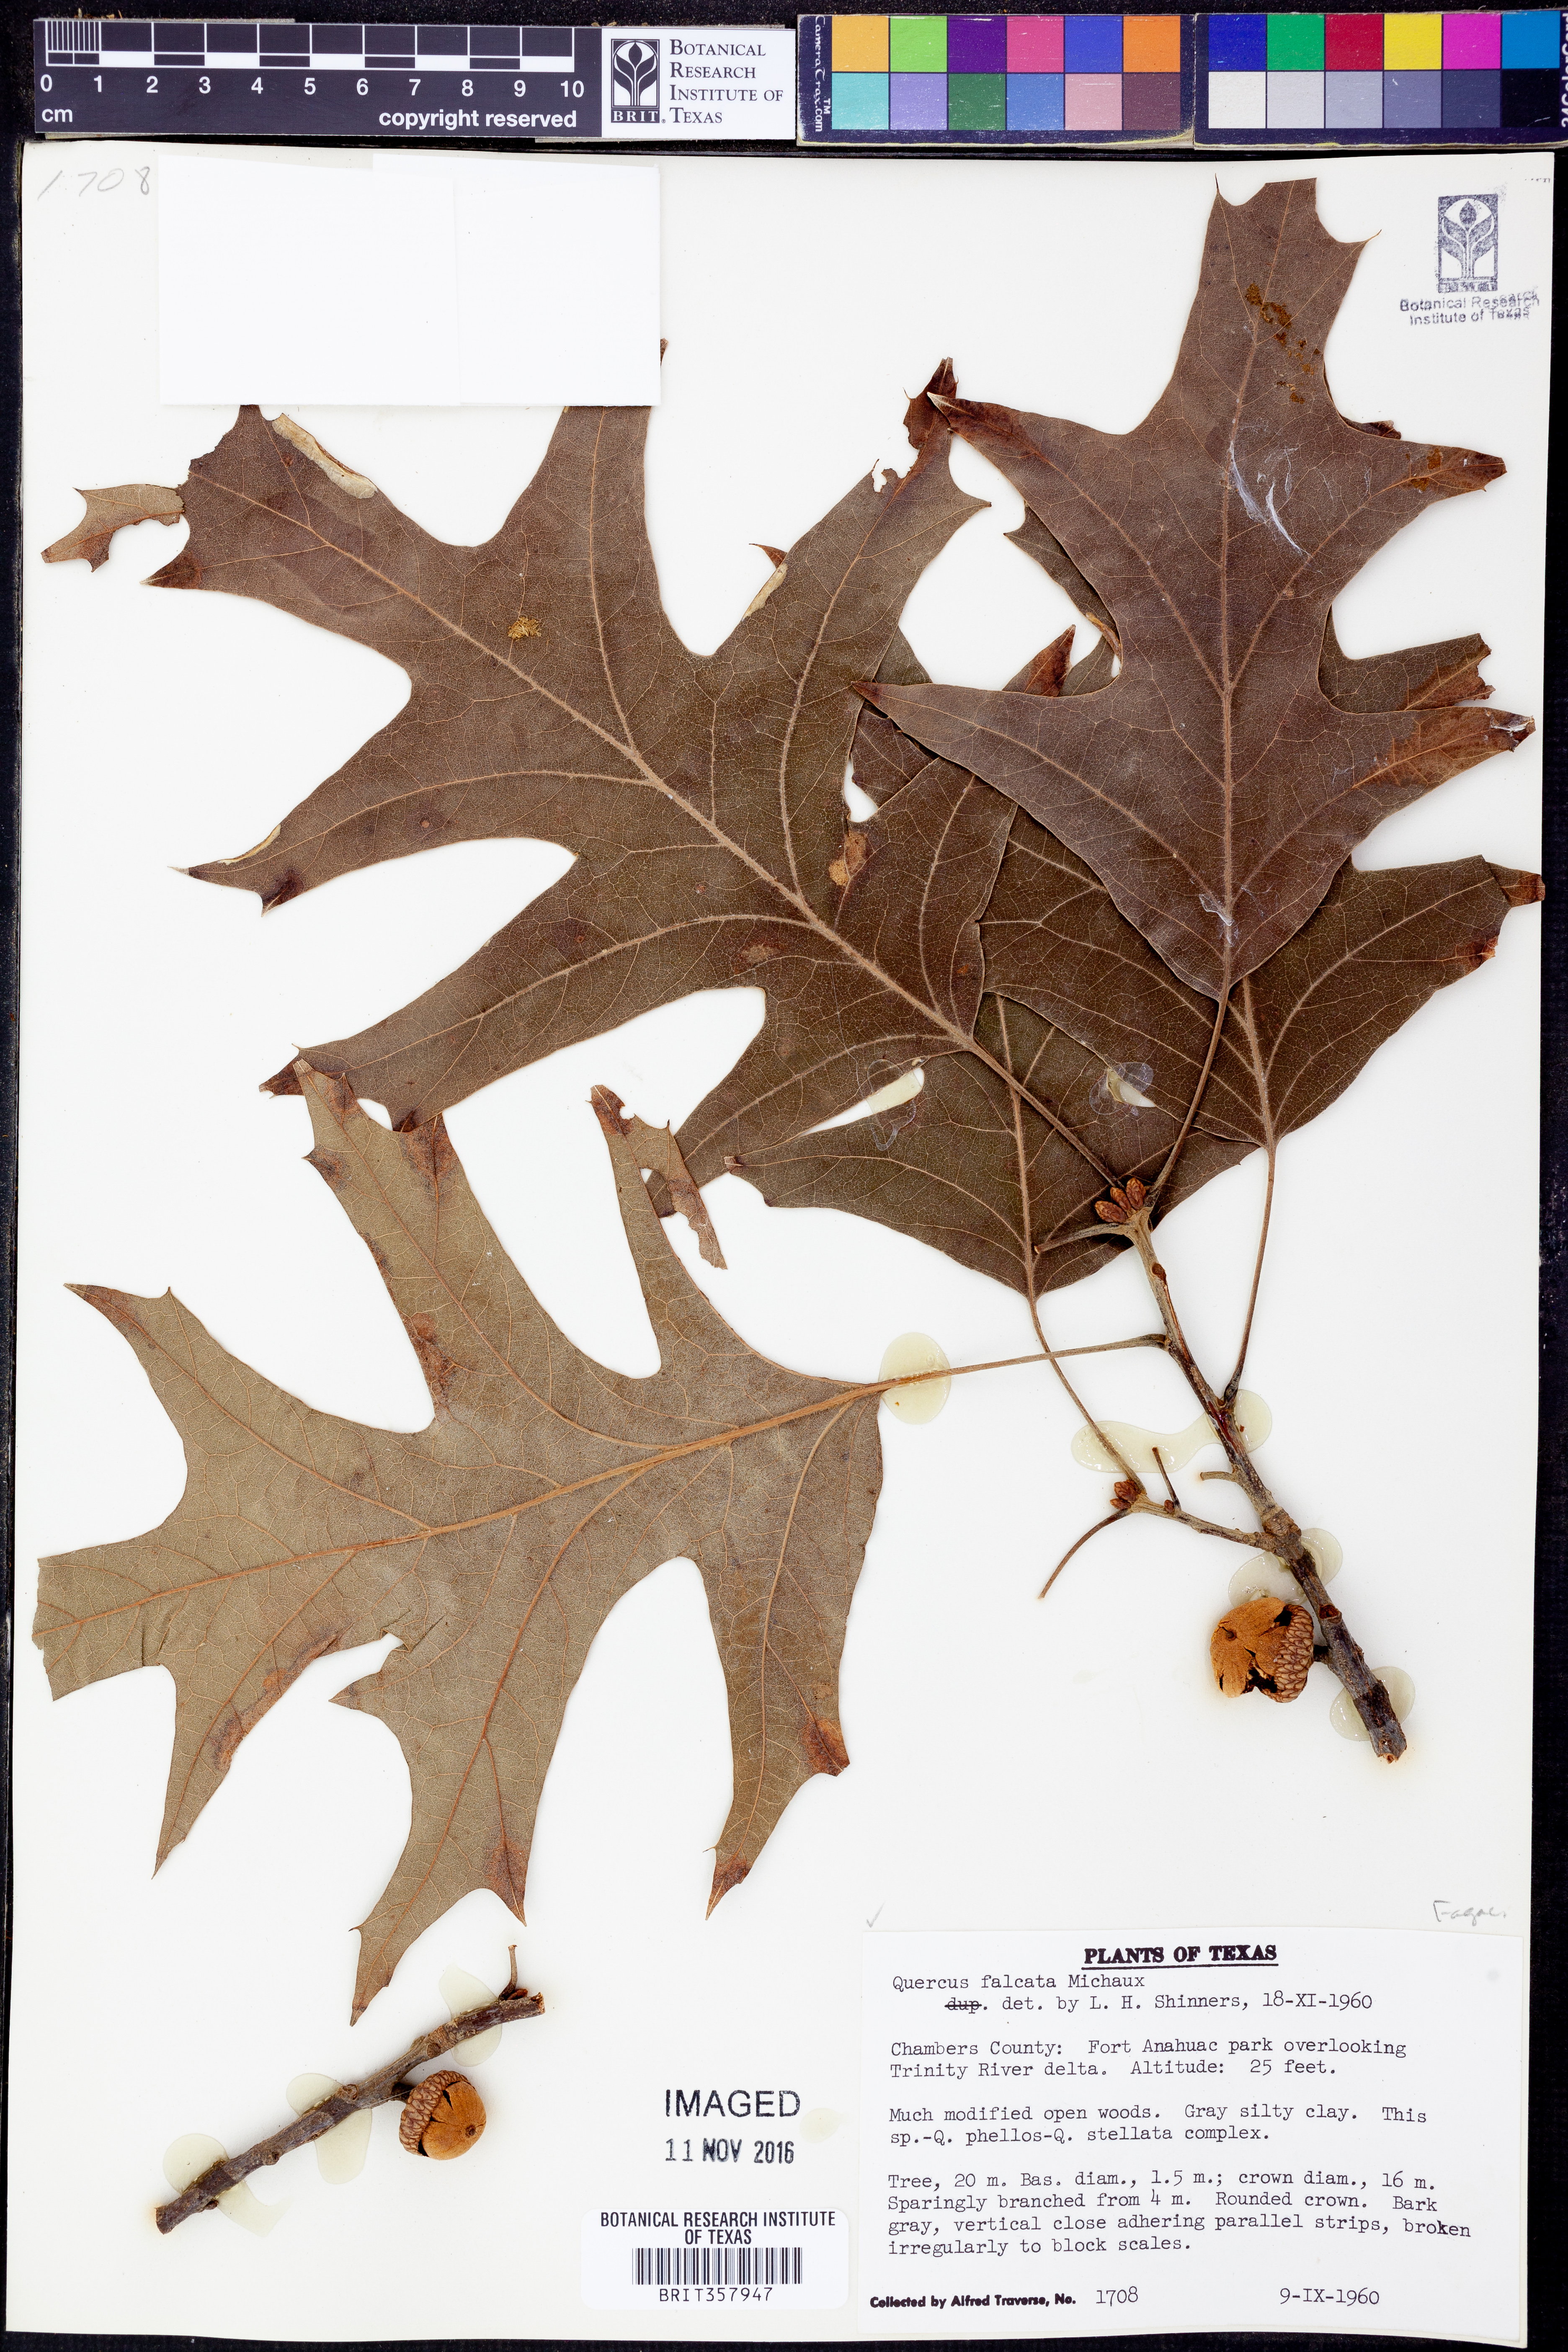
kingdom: Plantae
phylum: Tracheophyta
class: Magnoliopsida
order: Fagales
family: Fagaceae
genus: Quercus
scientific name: Quercus falcata
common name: Southern red oak
